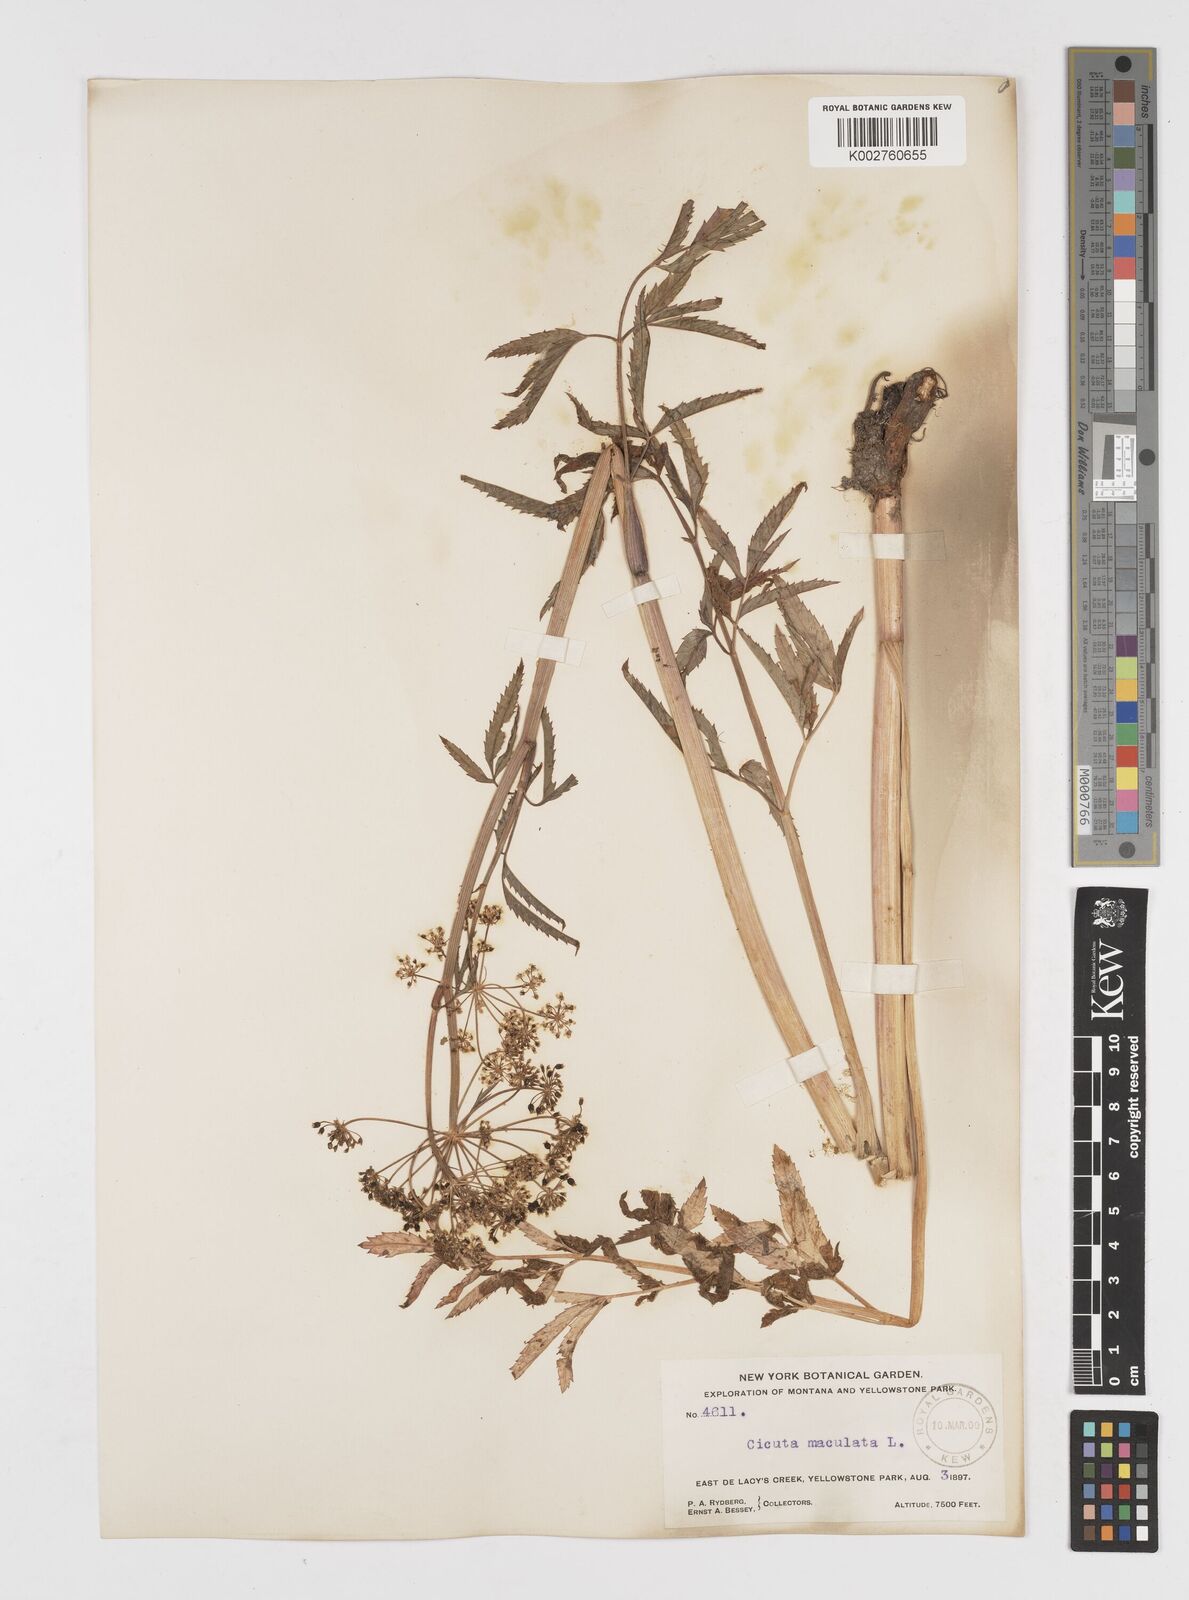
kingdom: Plantae
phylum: Tracheophyta
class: Magnoliopsida
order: Apiales
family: Apiaceae
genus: Cicuta
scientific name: Cicuta douglasii
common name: Western water-hemlock
